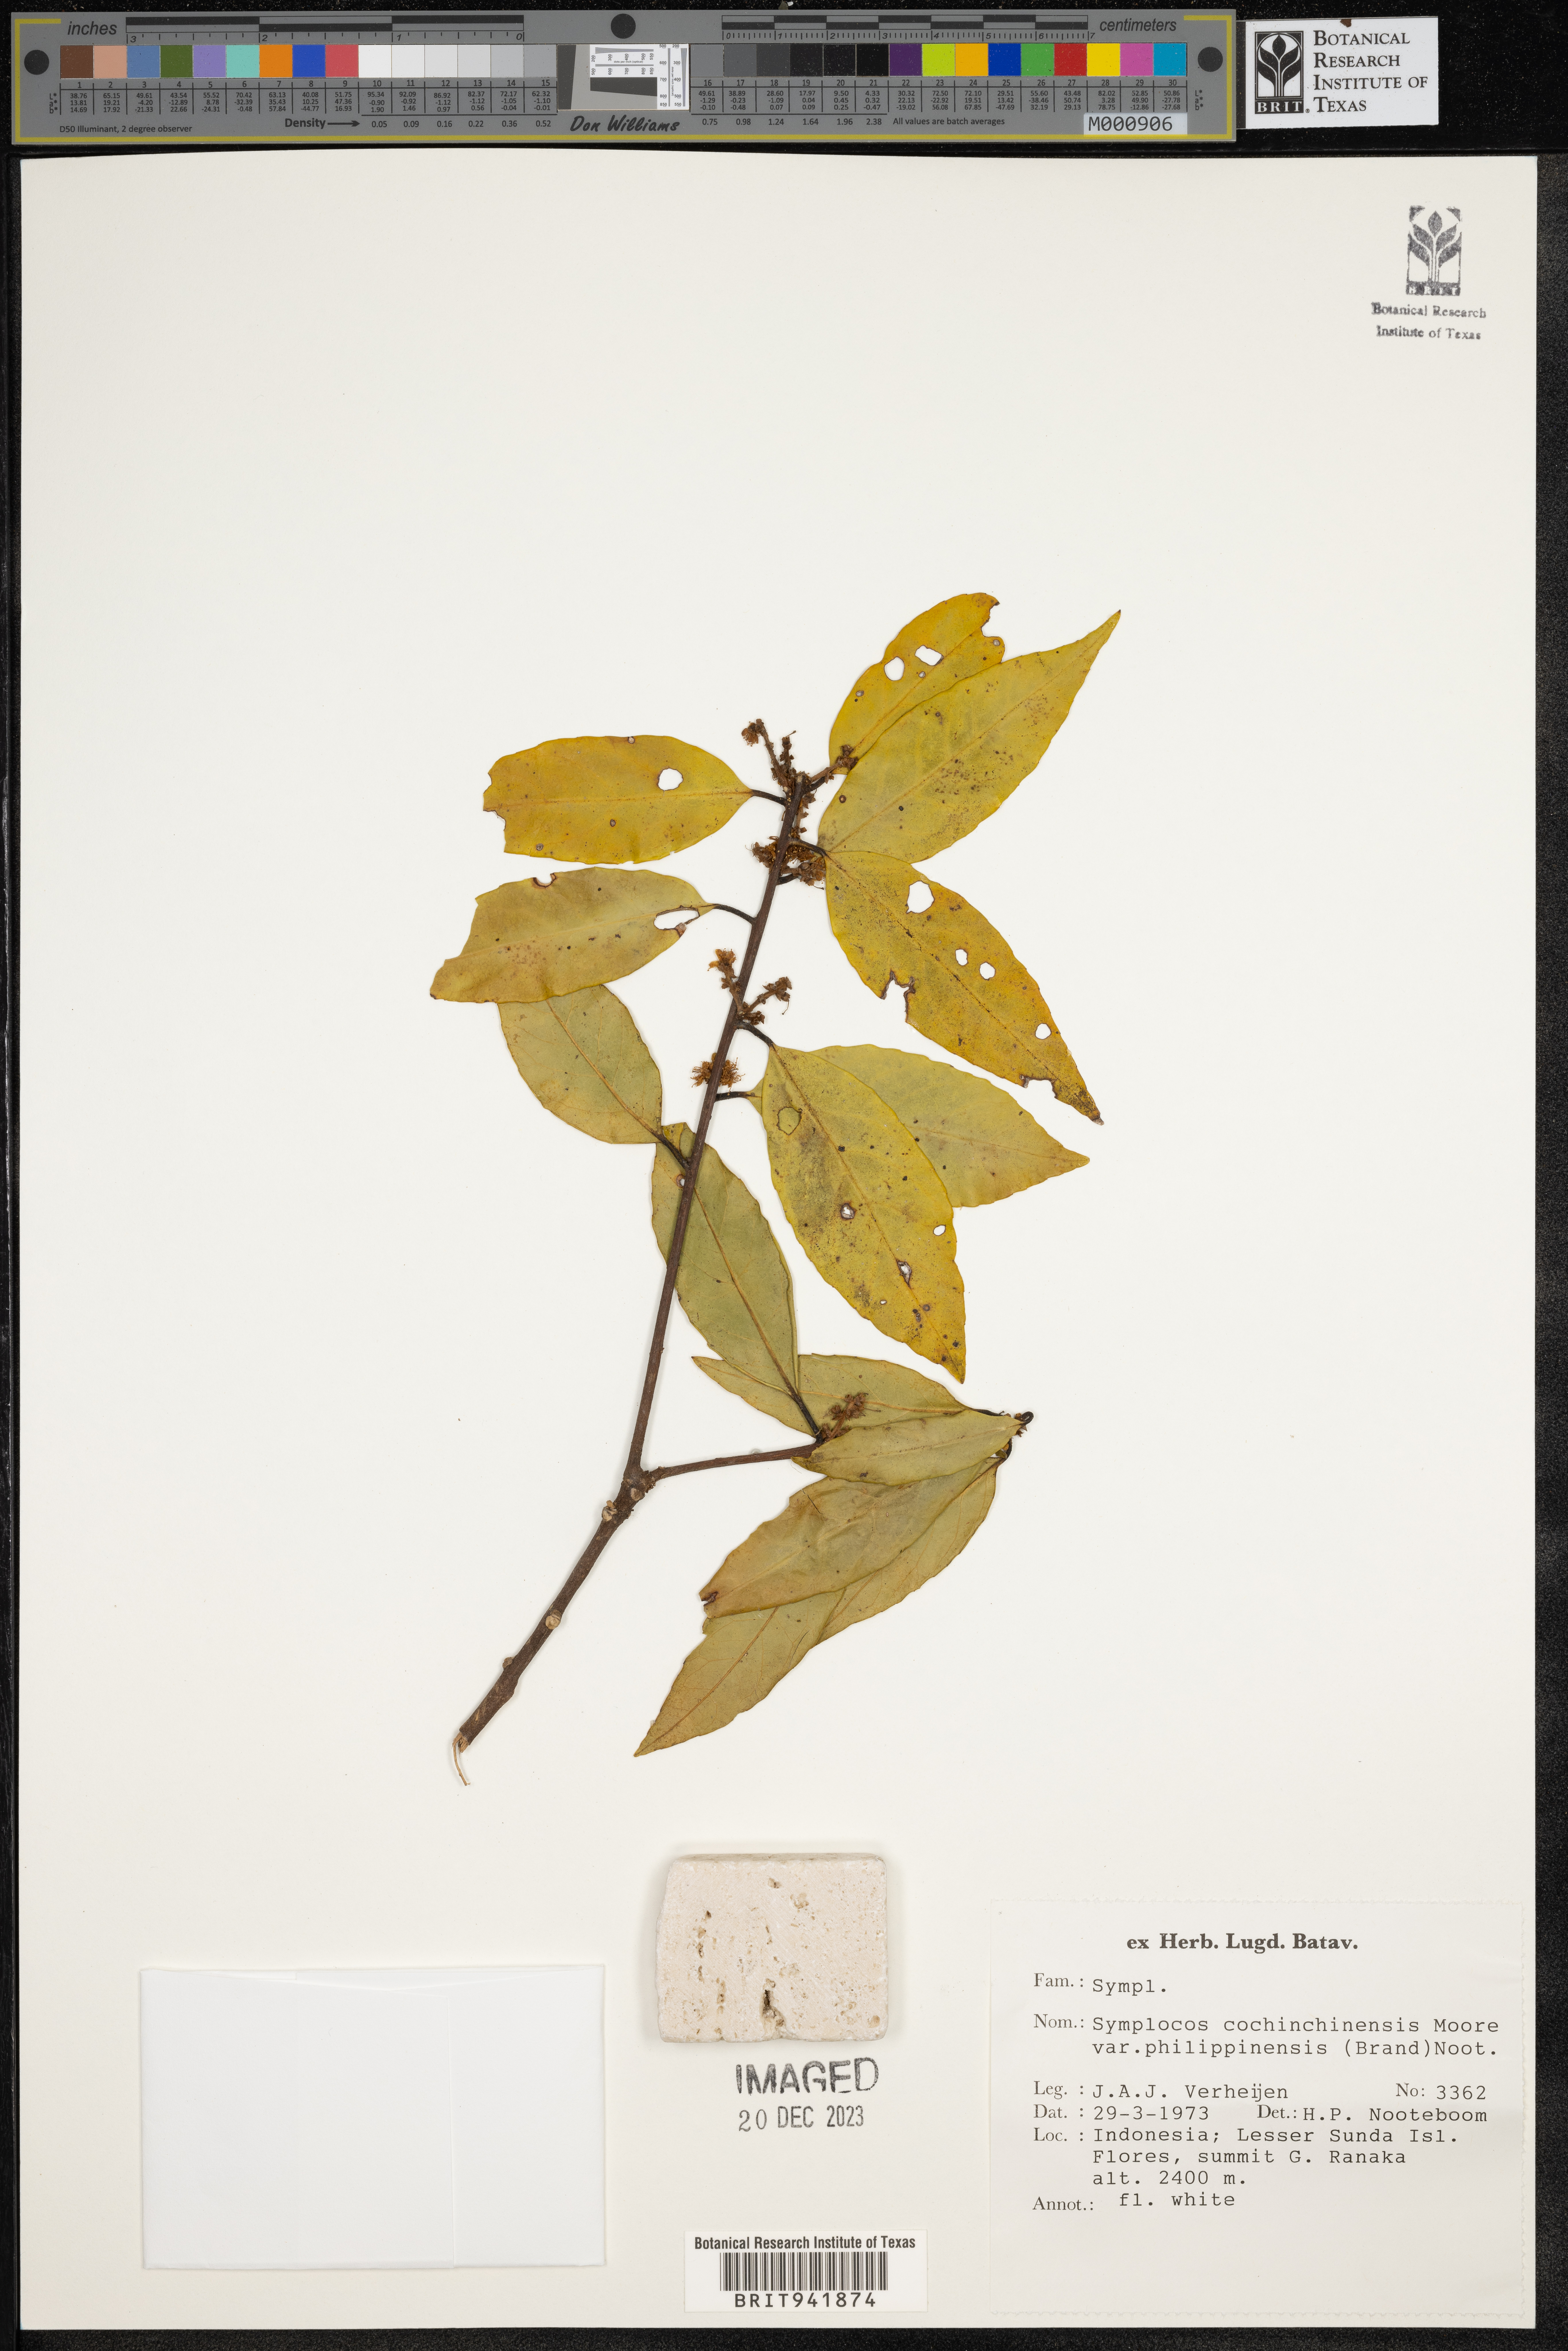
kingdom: Plantae
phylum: Tracheophyta
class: Magnoliopsida
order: Ericales
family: Symplocaceae
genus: Symplocos
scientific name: Symplocos cochinchinensis
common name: Buff hazelwood
